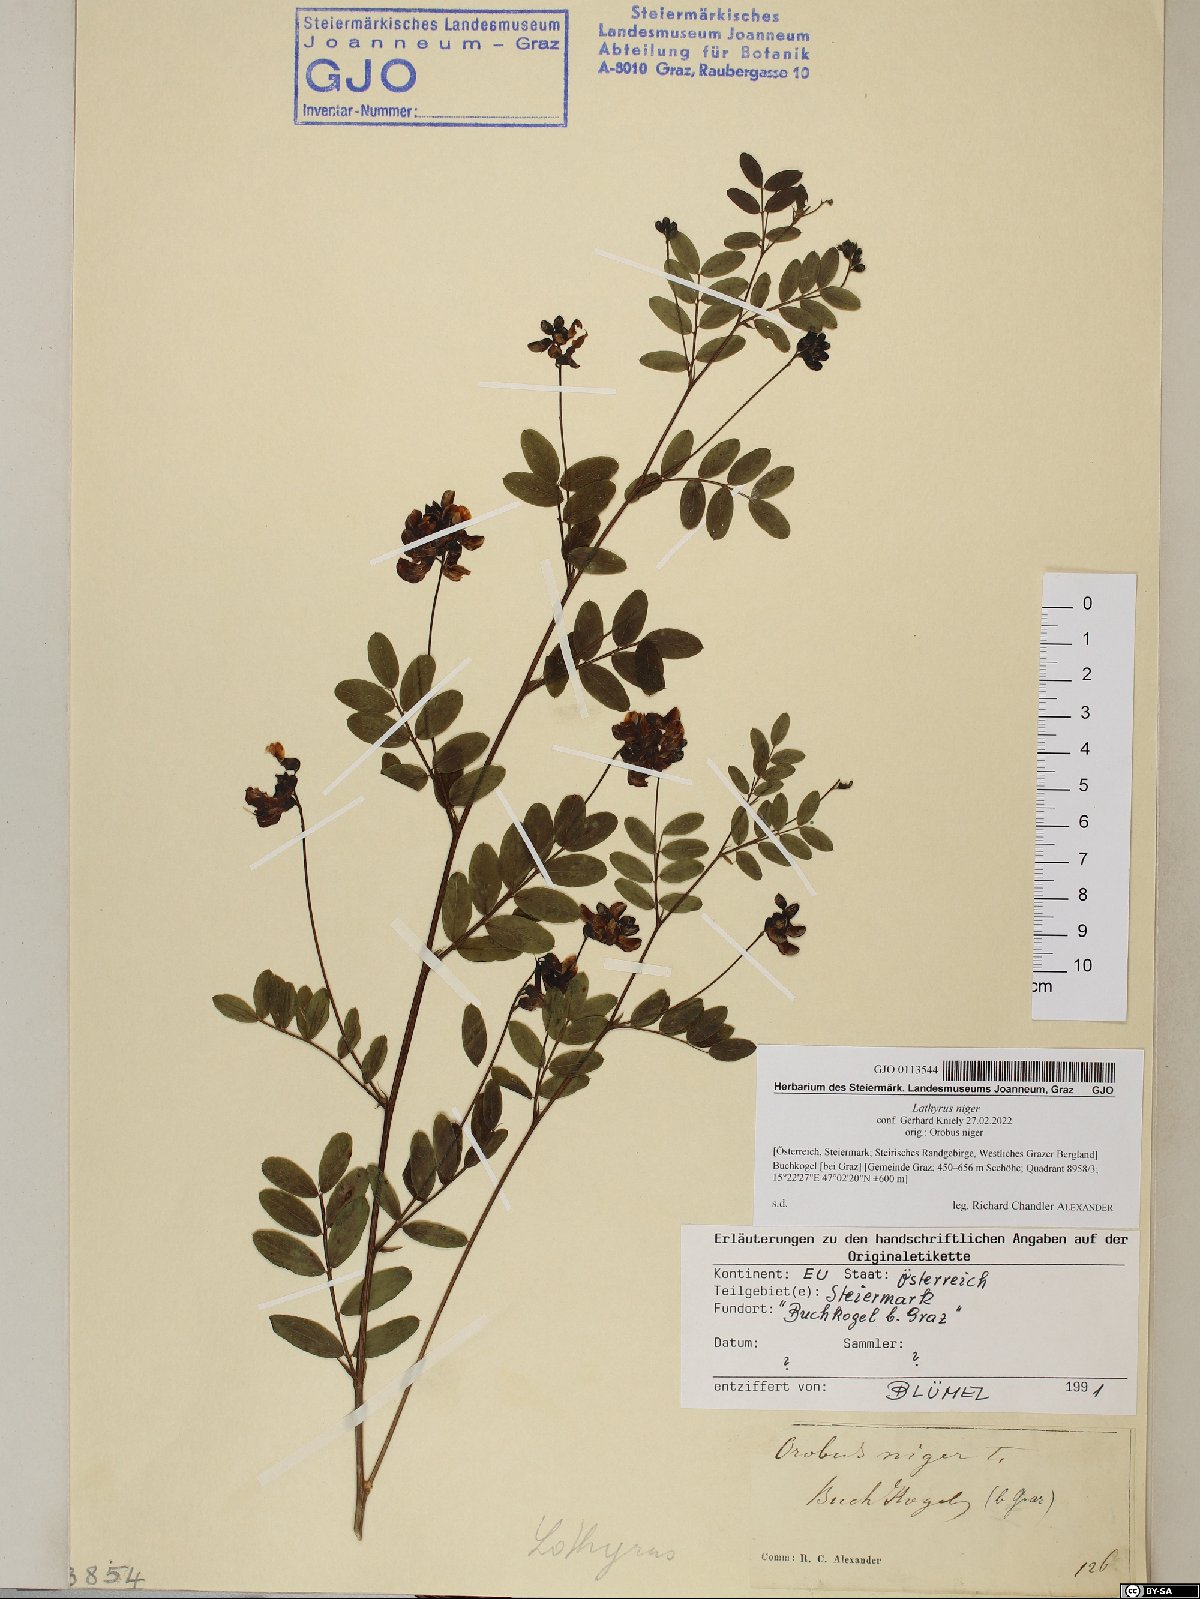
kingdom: Plantae
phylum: Tracheophyta
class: Magnoliopsida
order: Fabales
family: Fabaceae
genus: Lathyrus
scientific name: Lathyrus niger
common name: Black pea
